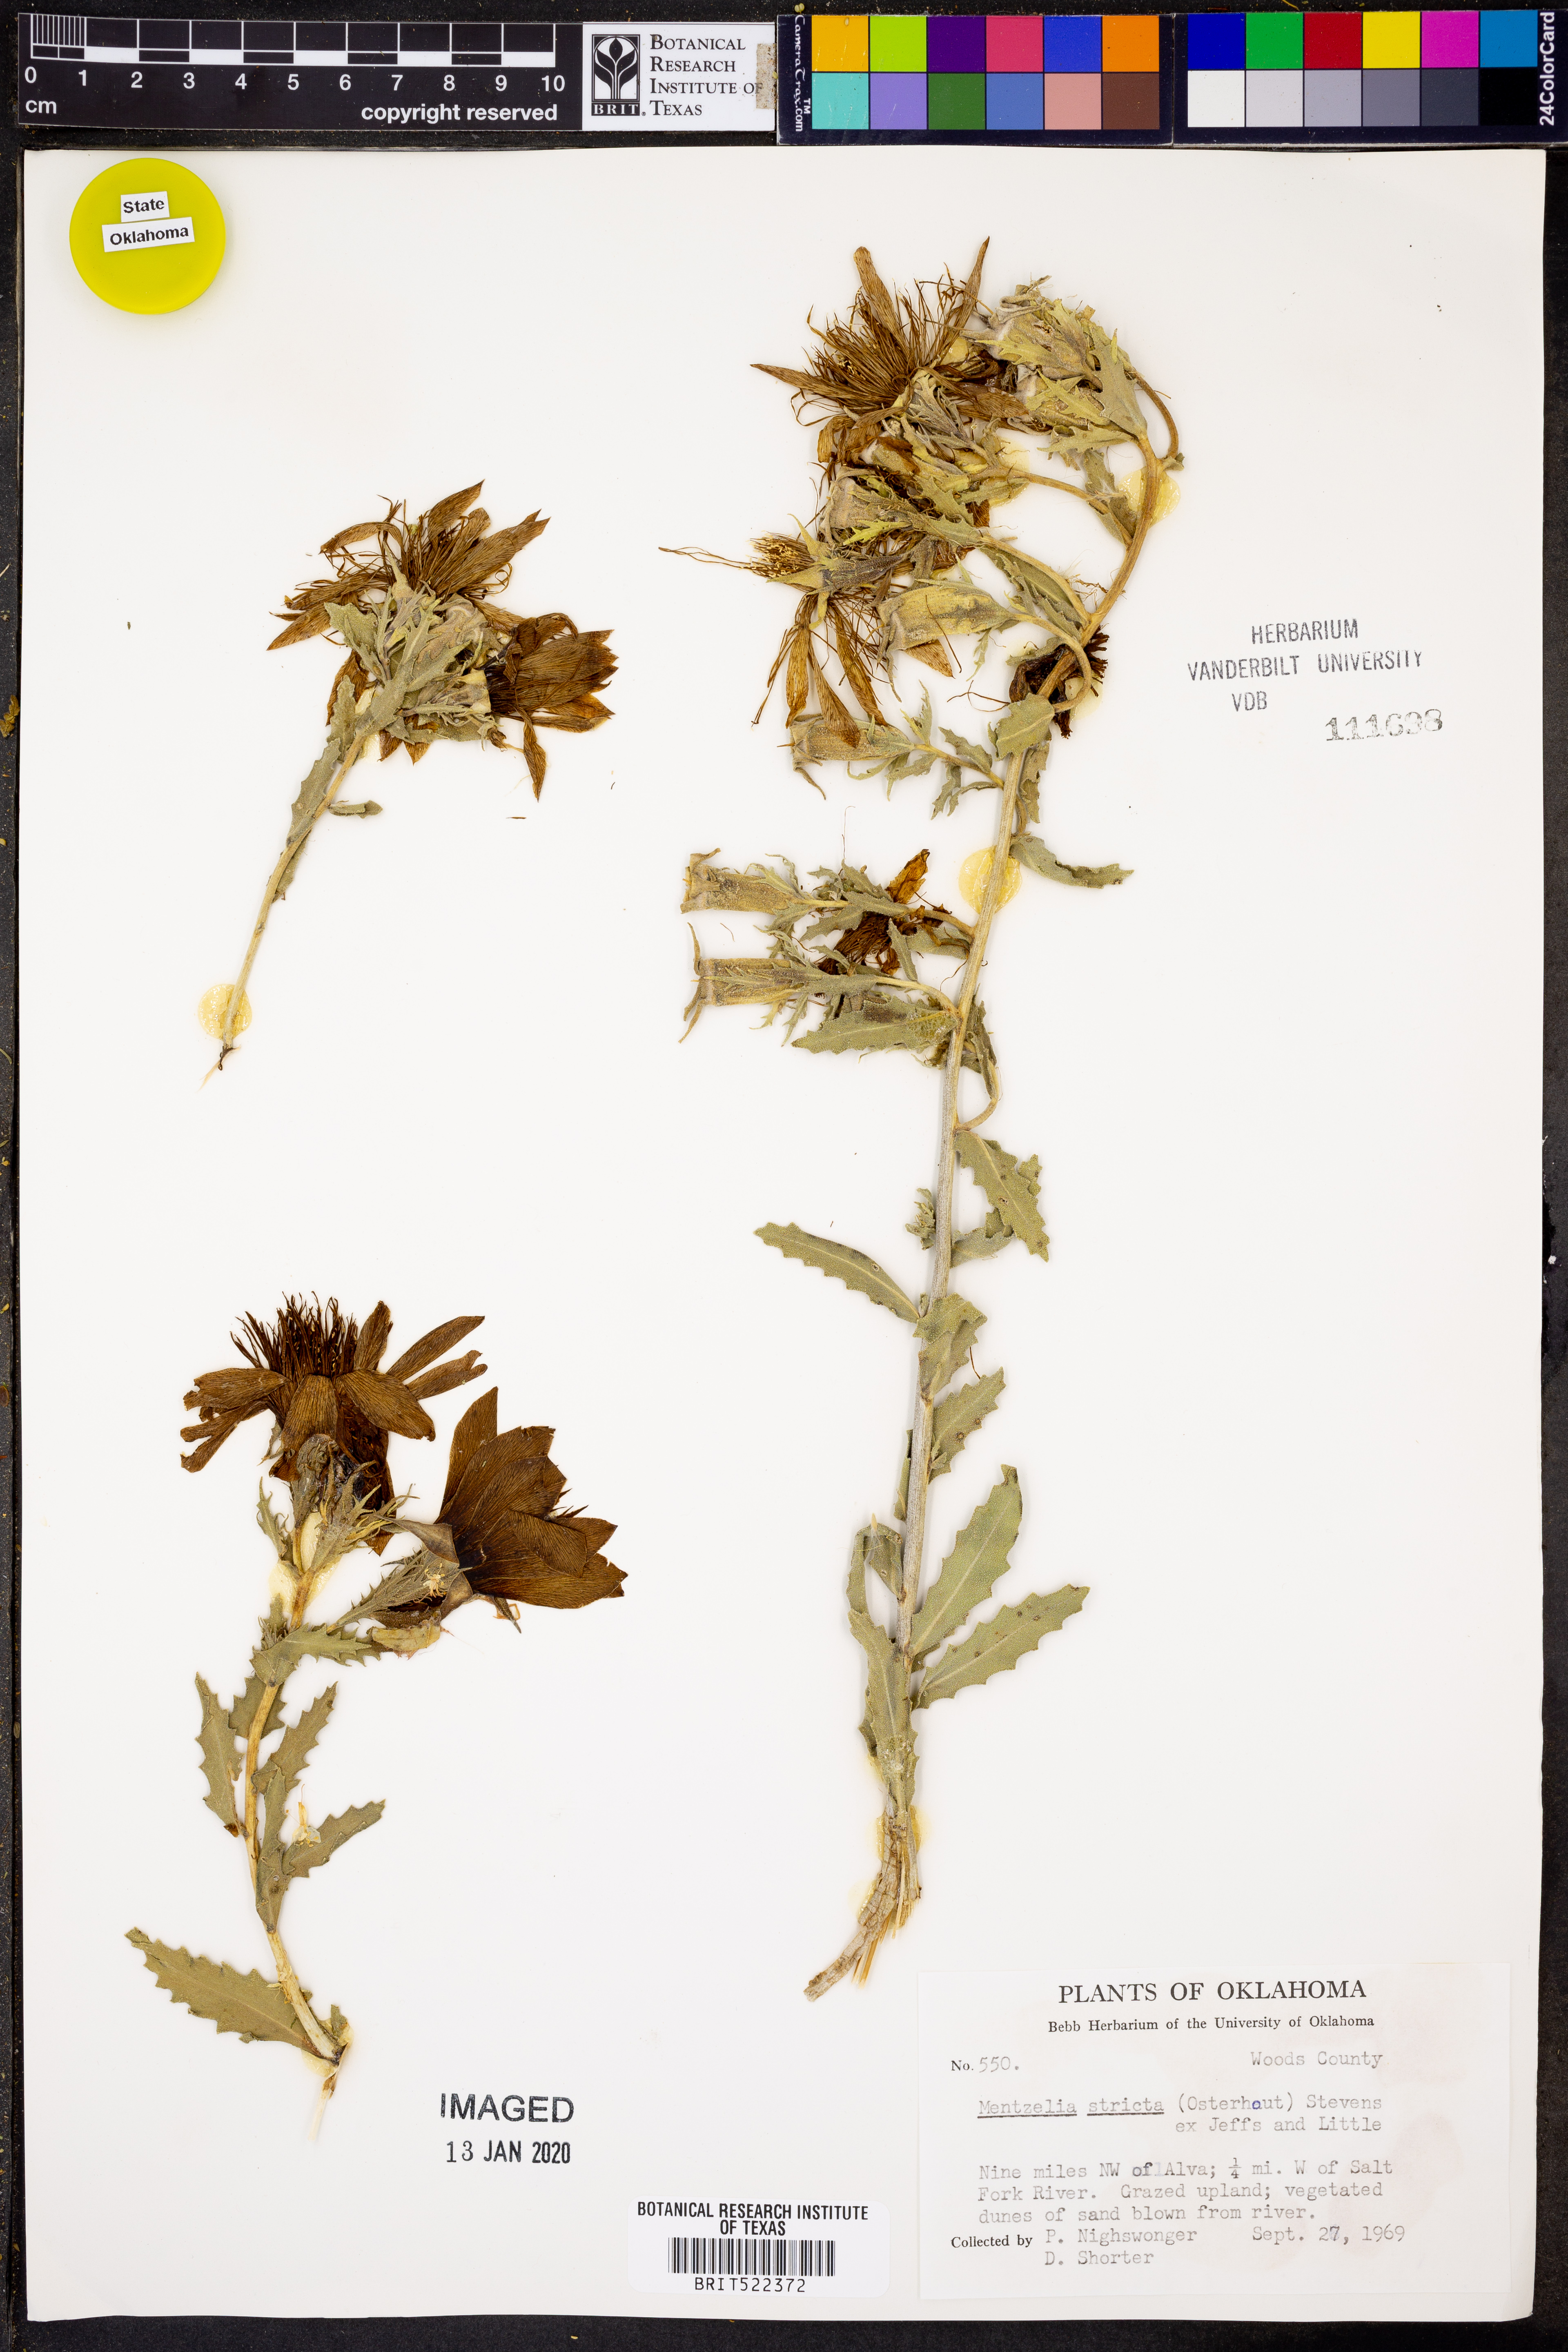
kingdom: Plantae
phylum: Tracheophyta
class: Magnoliopsida
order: Cornales
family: Loasaceae
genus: Mentzelia
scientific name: Mentzelia nuda
